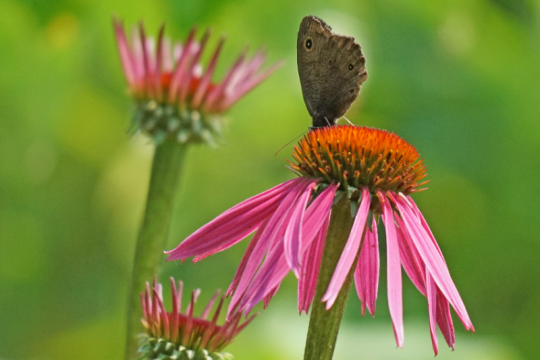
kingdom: Animalia
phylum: Arthropoda
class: Insecta
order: Lepidoptera
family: Nymphalidae
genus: Cercyonis
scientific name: Cercyonis pegala
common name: Common Wood-Nymph
